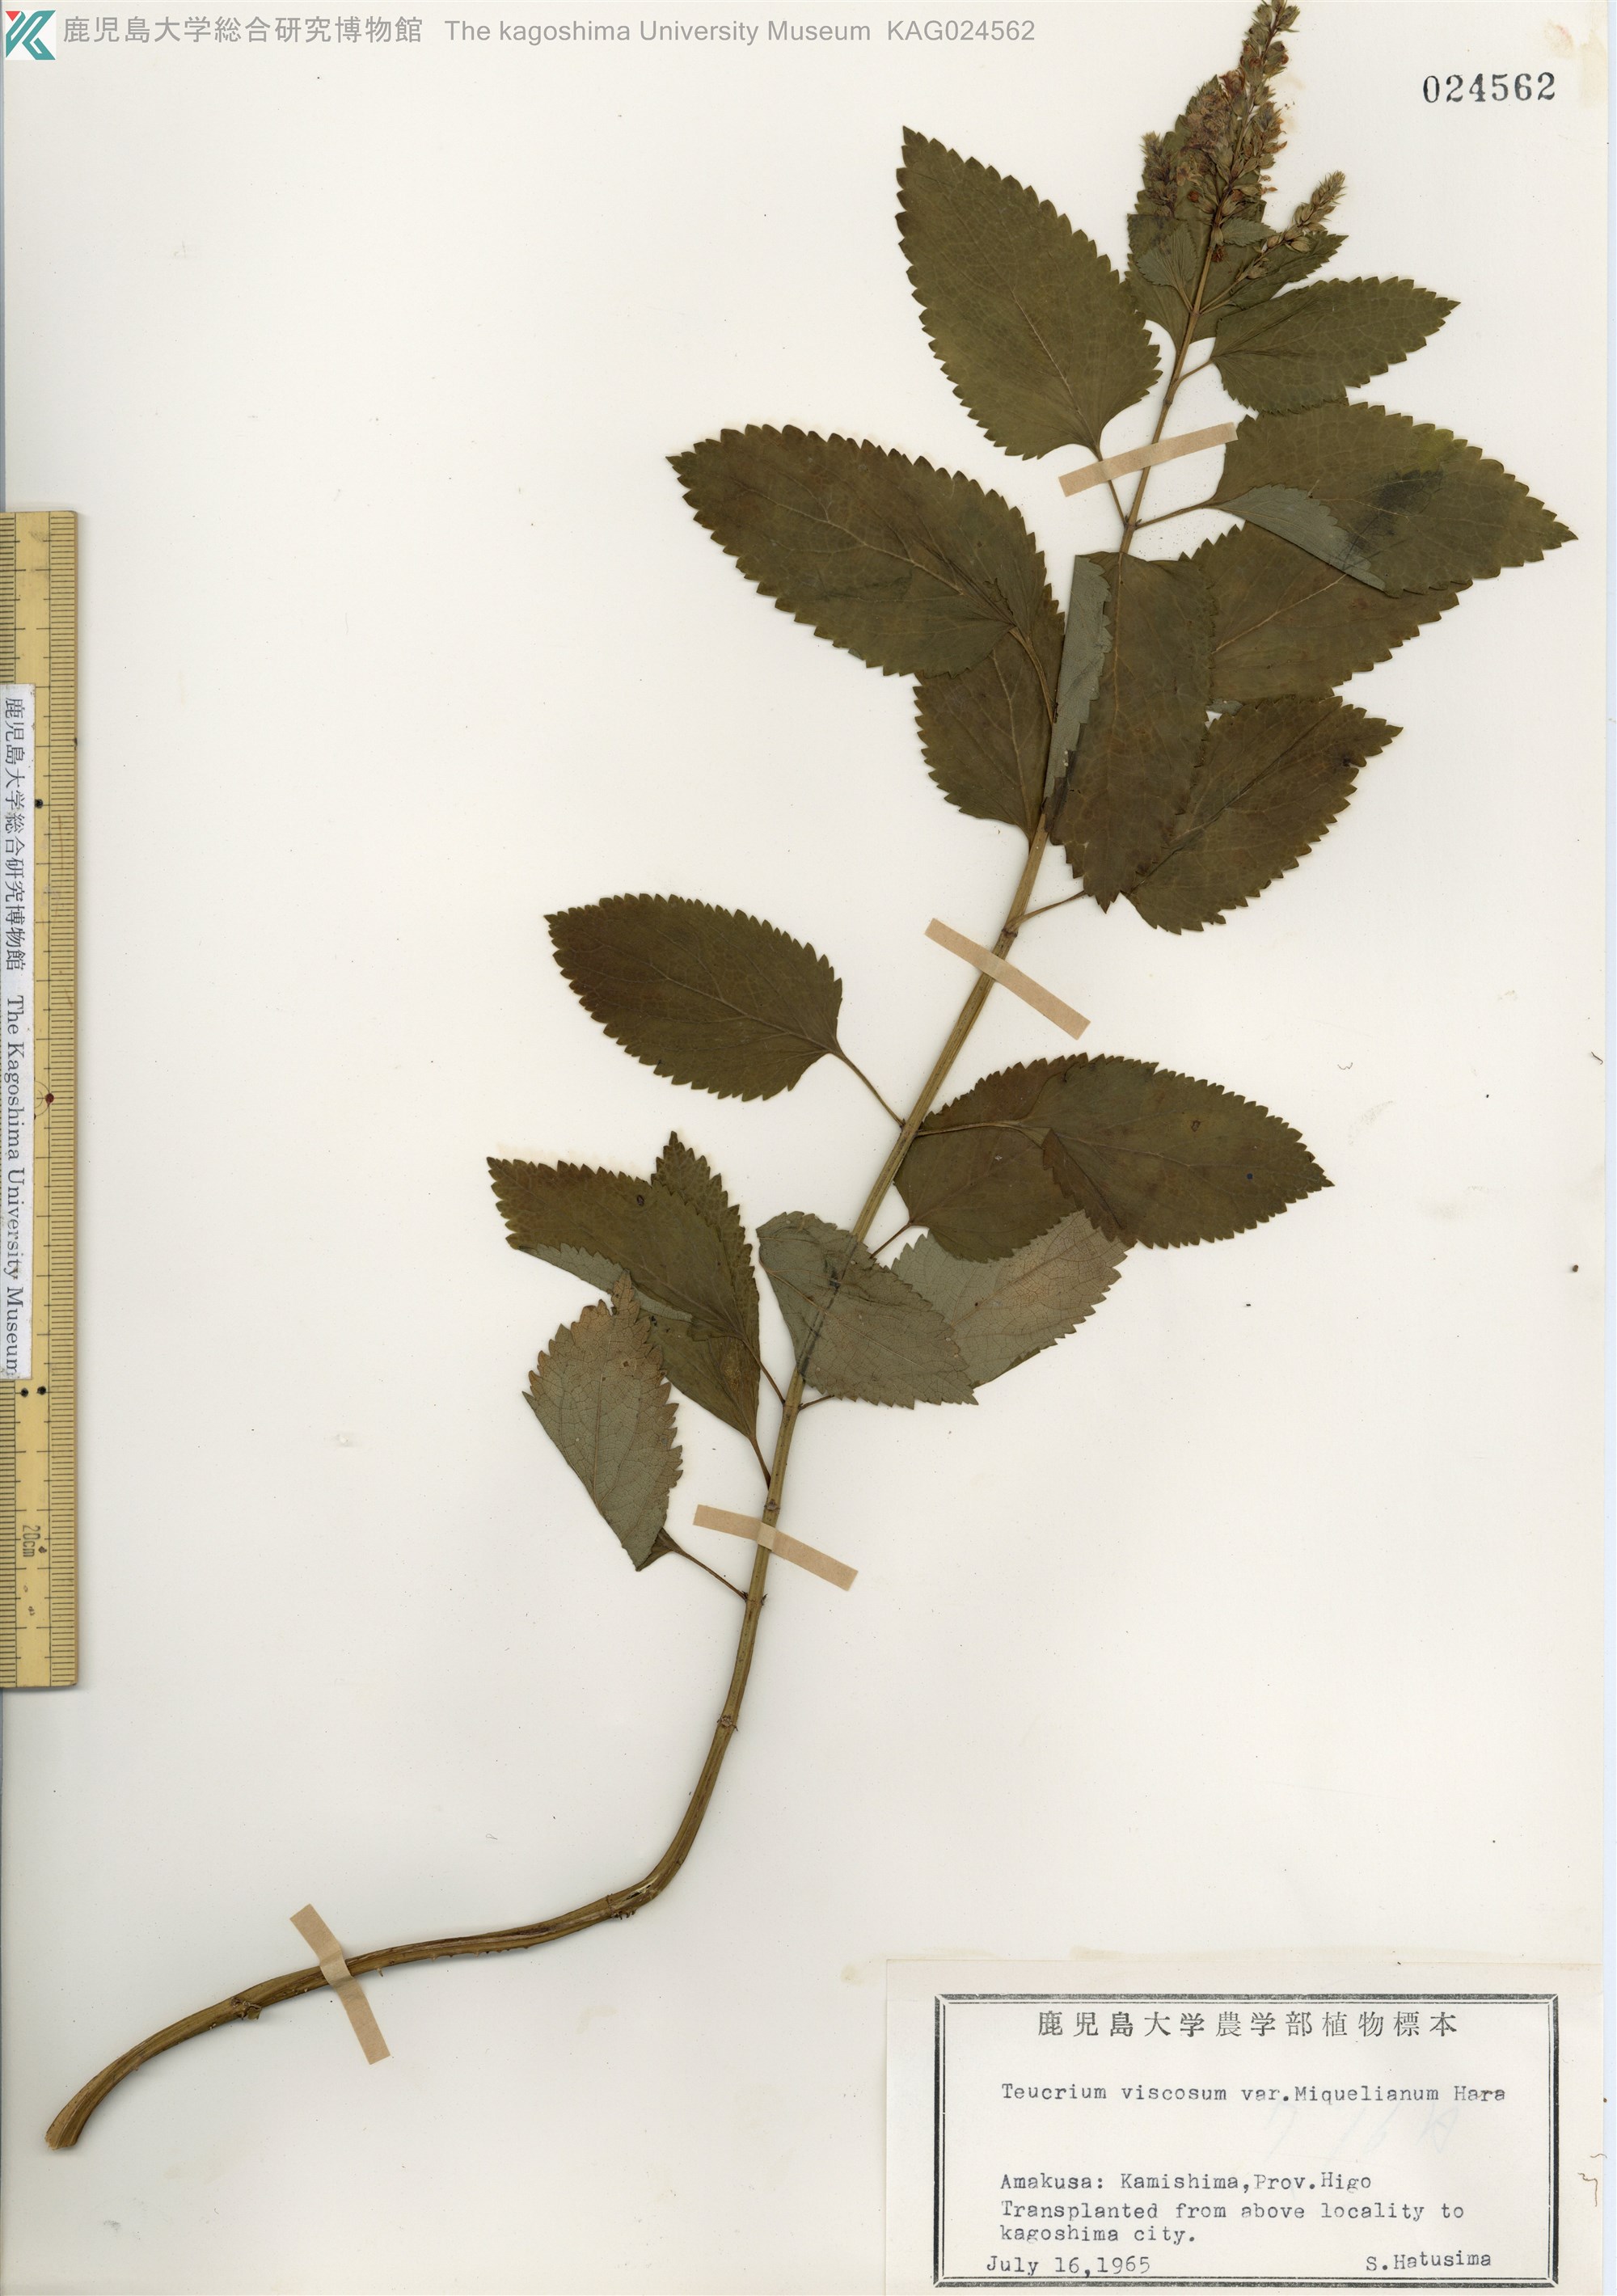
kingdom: Plantae
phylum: Tracheophyta
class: Magnoliopsida
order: Lamiales
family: Lamiaceae
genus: Teucrium
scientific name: Teucrium viscidum
